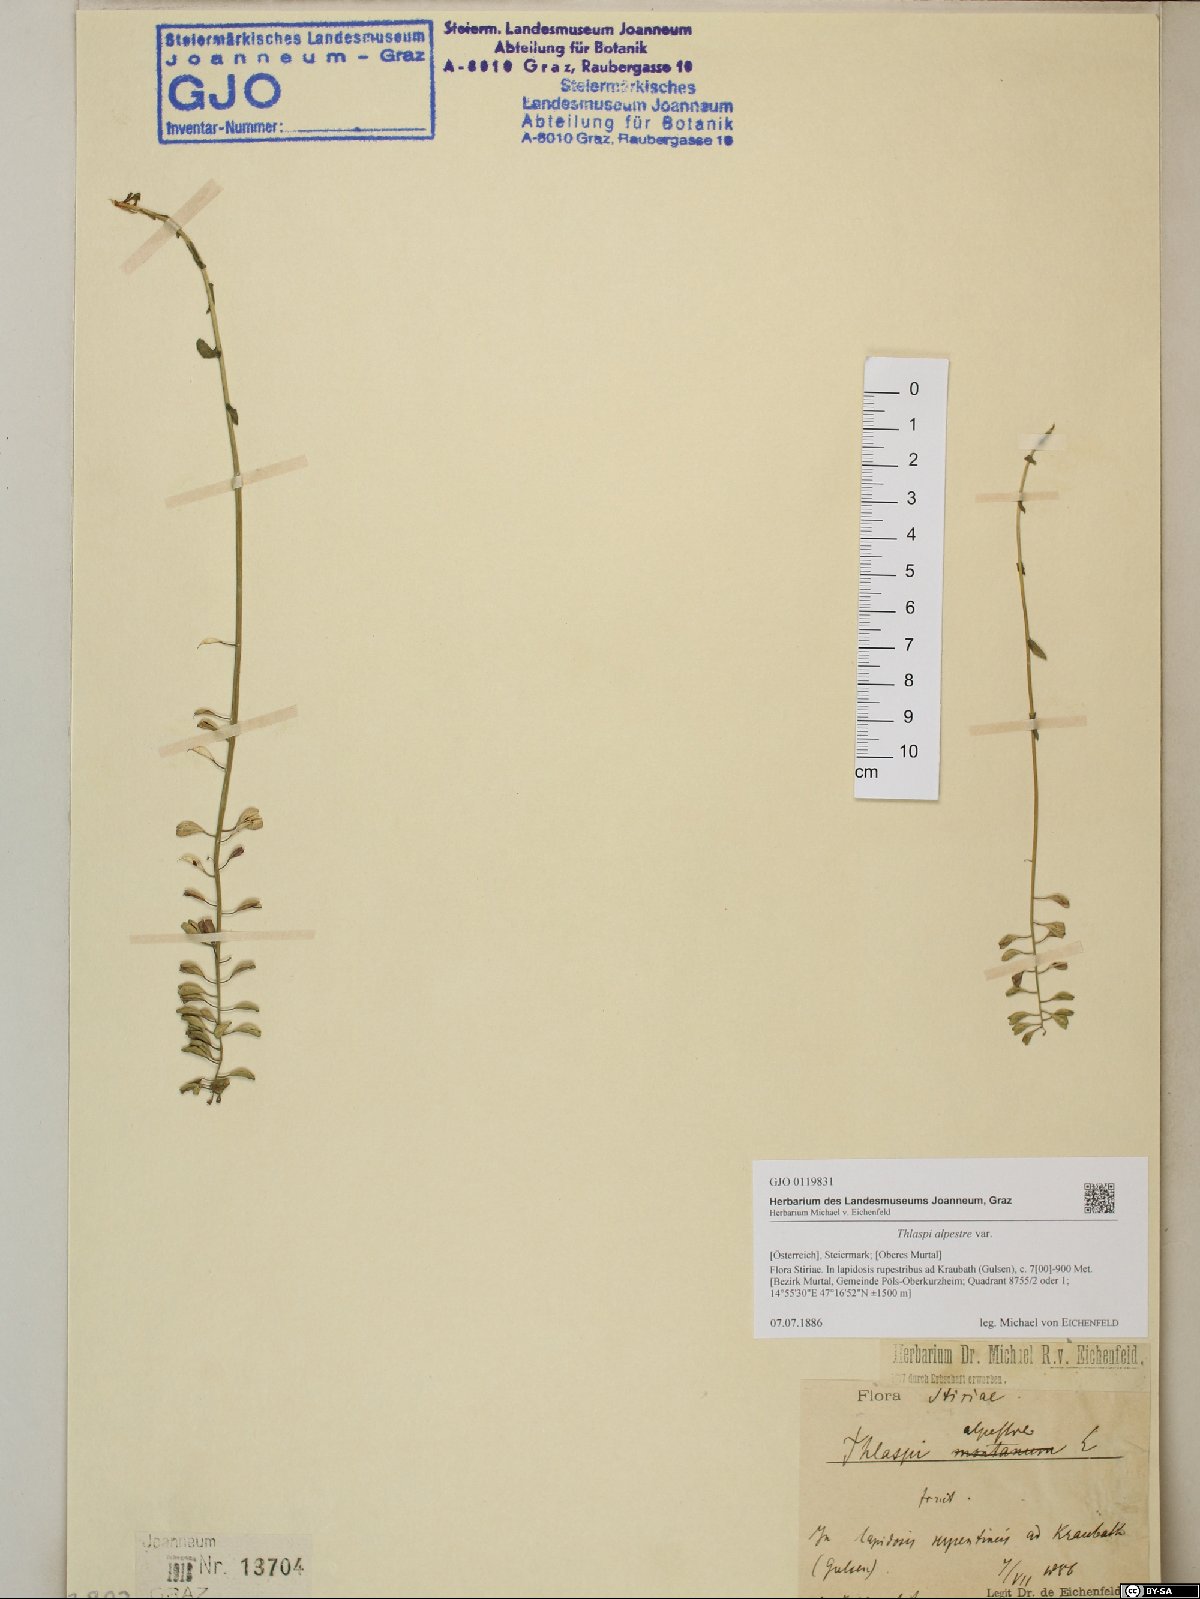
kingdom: Plantae
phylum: Tracheophyta
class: Magnoliopsida
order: Brassicales
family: Brassicaceae
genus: Noccaea
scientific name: Noccaea caerulescens
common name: Alpine pennycress
